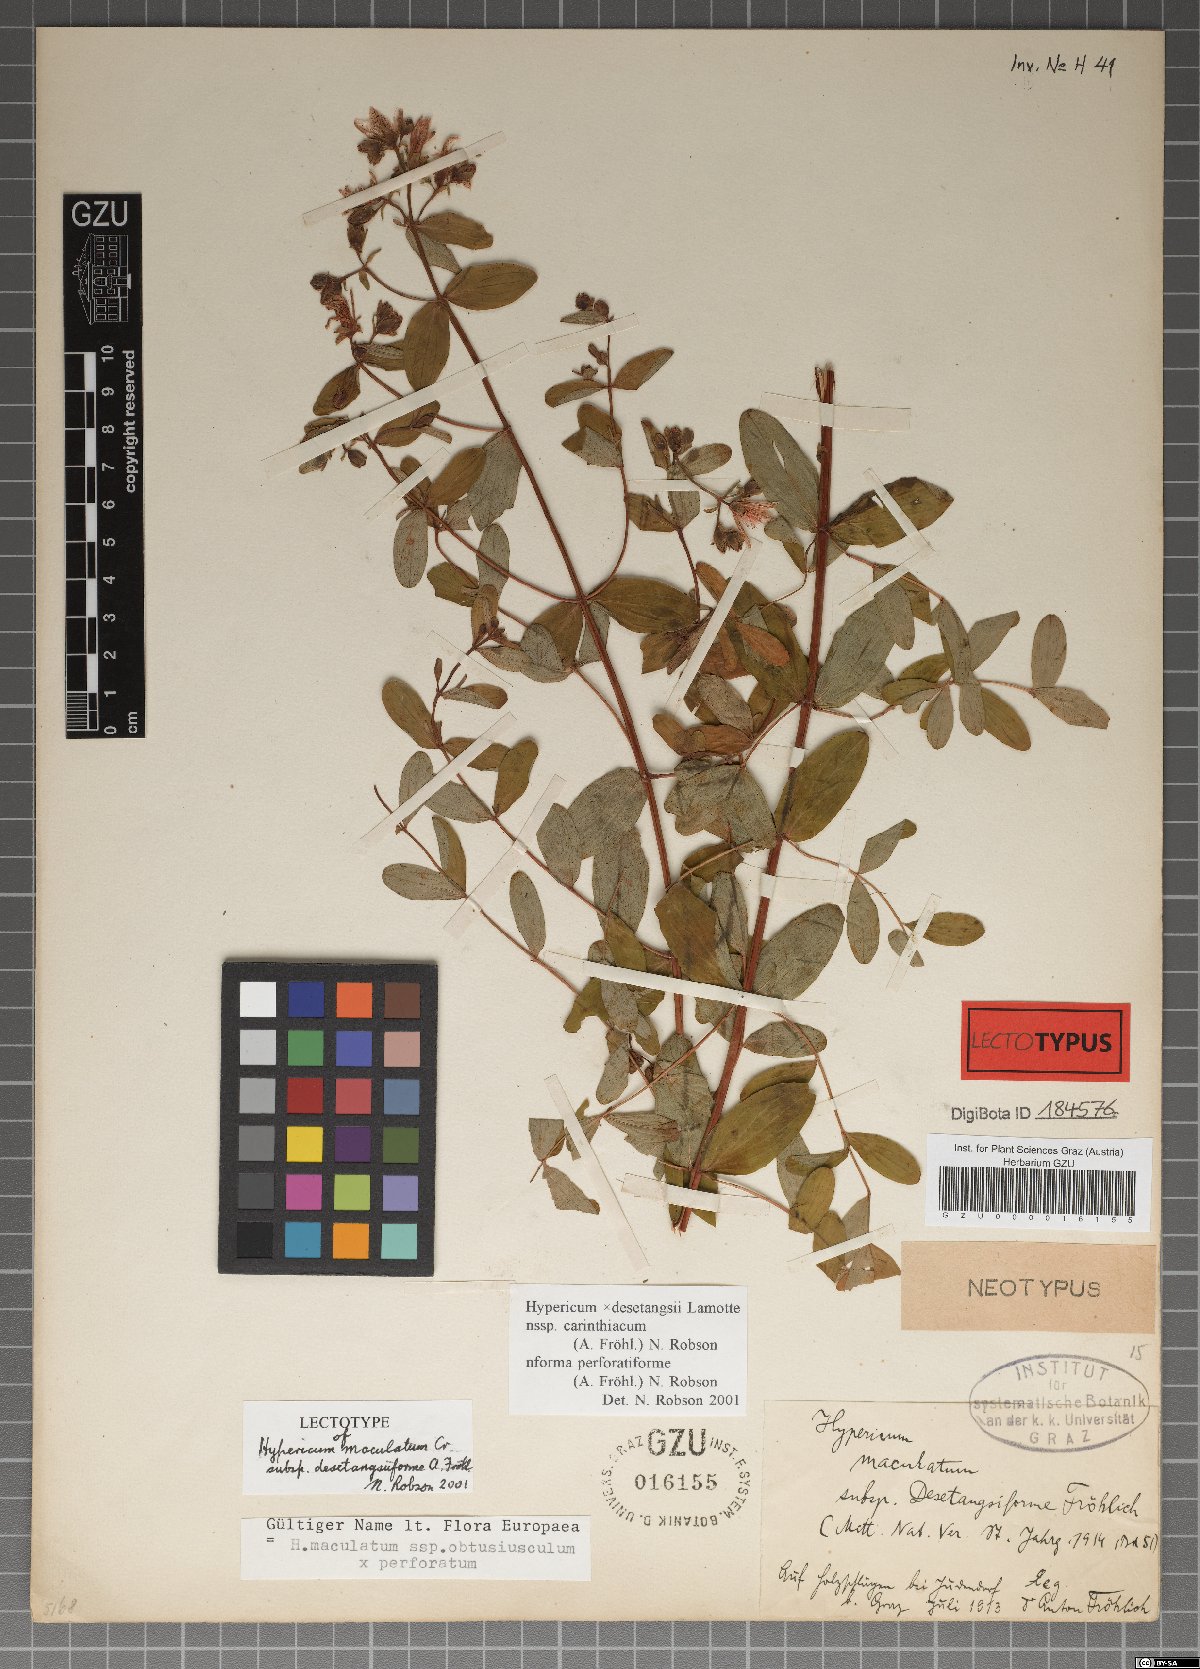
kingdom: Plantae
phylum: Tracheophyta
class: Magnoliopsida
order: Malpighiales
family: Hypericaceae
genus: Hypericum
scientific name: Hypericum carinthiacum
